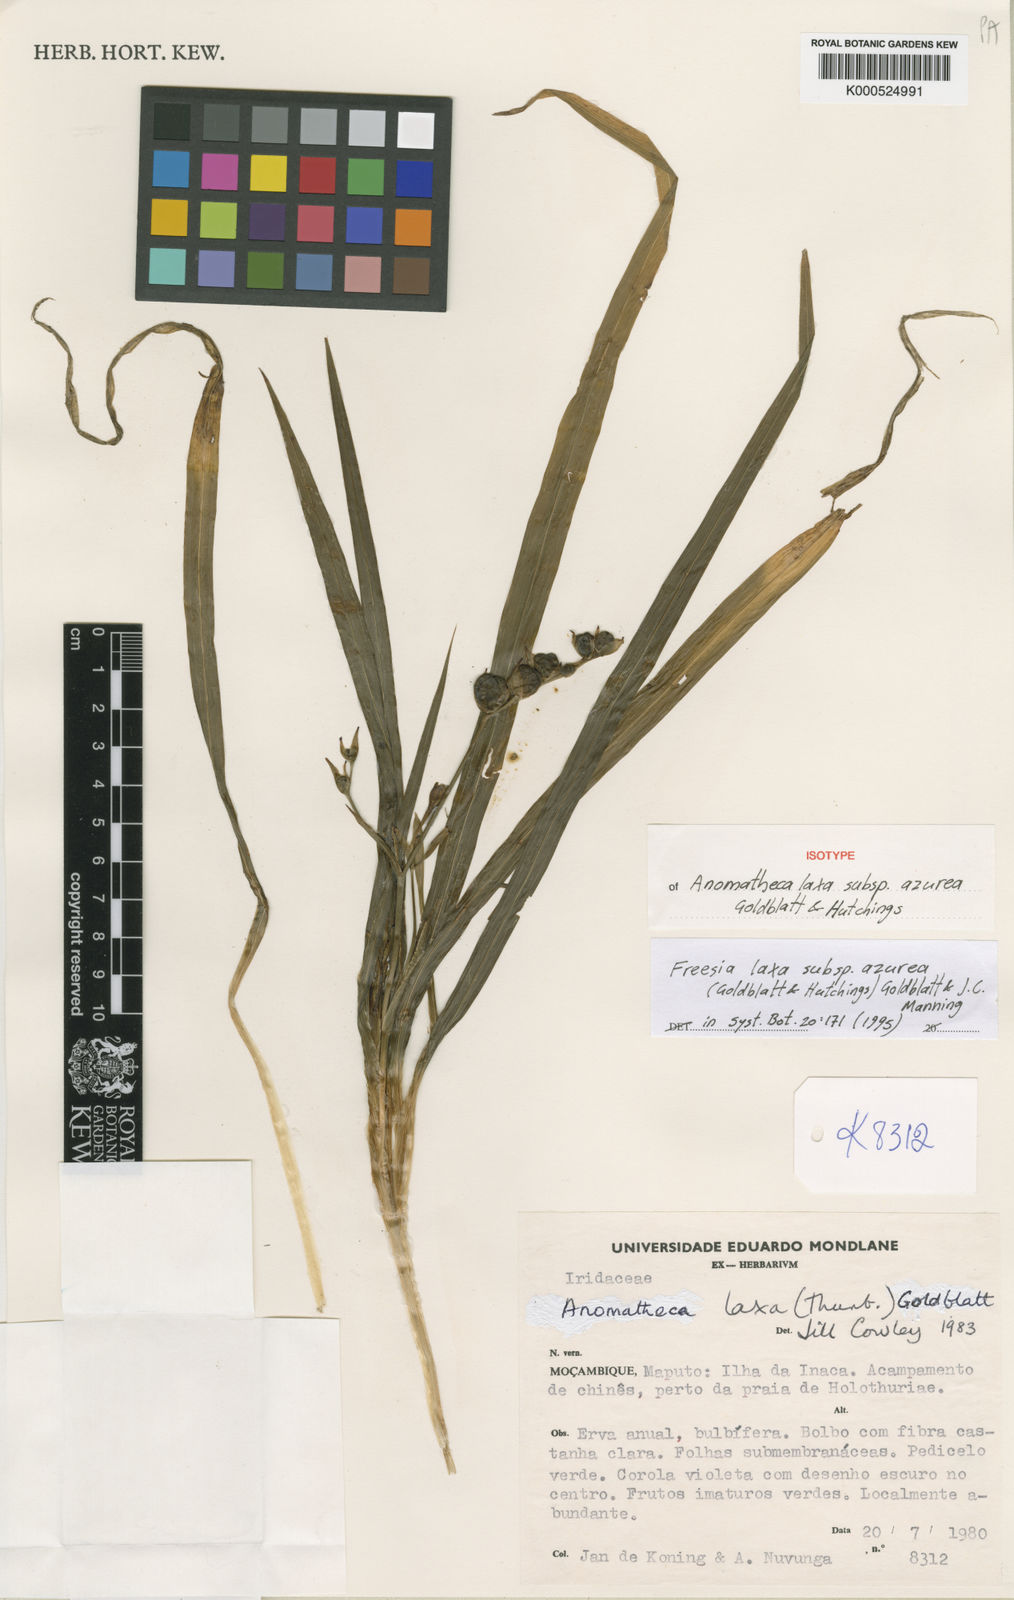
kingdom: Plantae
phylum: Tracheophyta
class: Liliopsida
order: Asparagales
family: Iridaceae
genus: Freesia
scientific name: Freesia laxa
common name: False freesia
